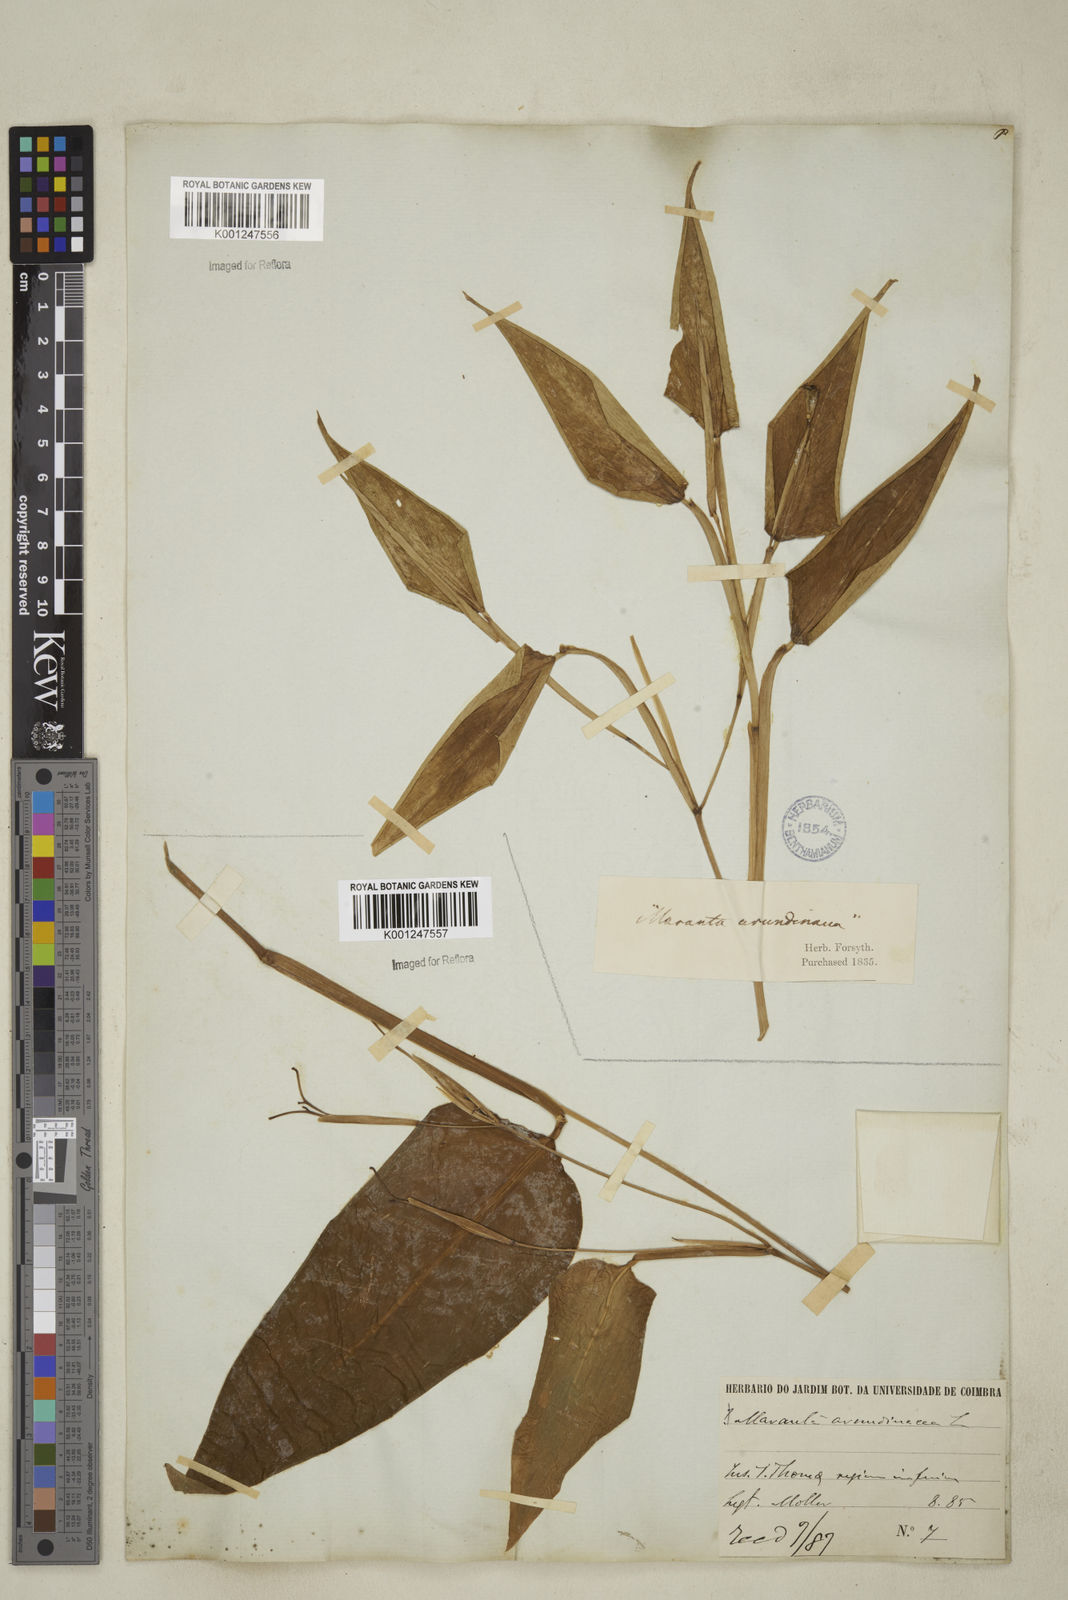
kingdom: Plantae
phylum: Tracheophyta
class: Liliopsida
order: Zingiberales
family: Marantaceae
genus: Maranta
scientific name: Maranta arundinacea
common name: Arrowroot
